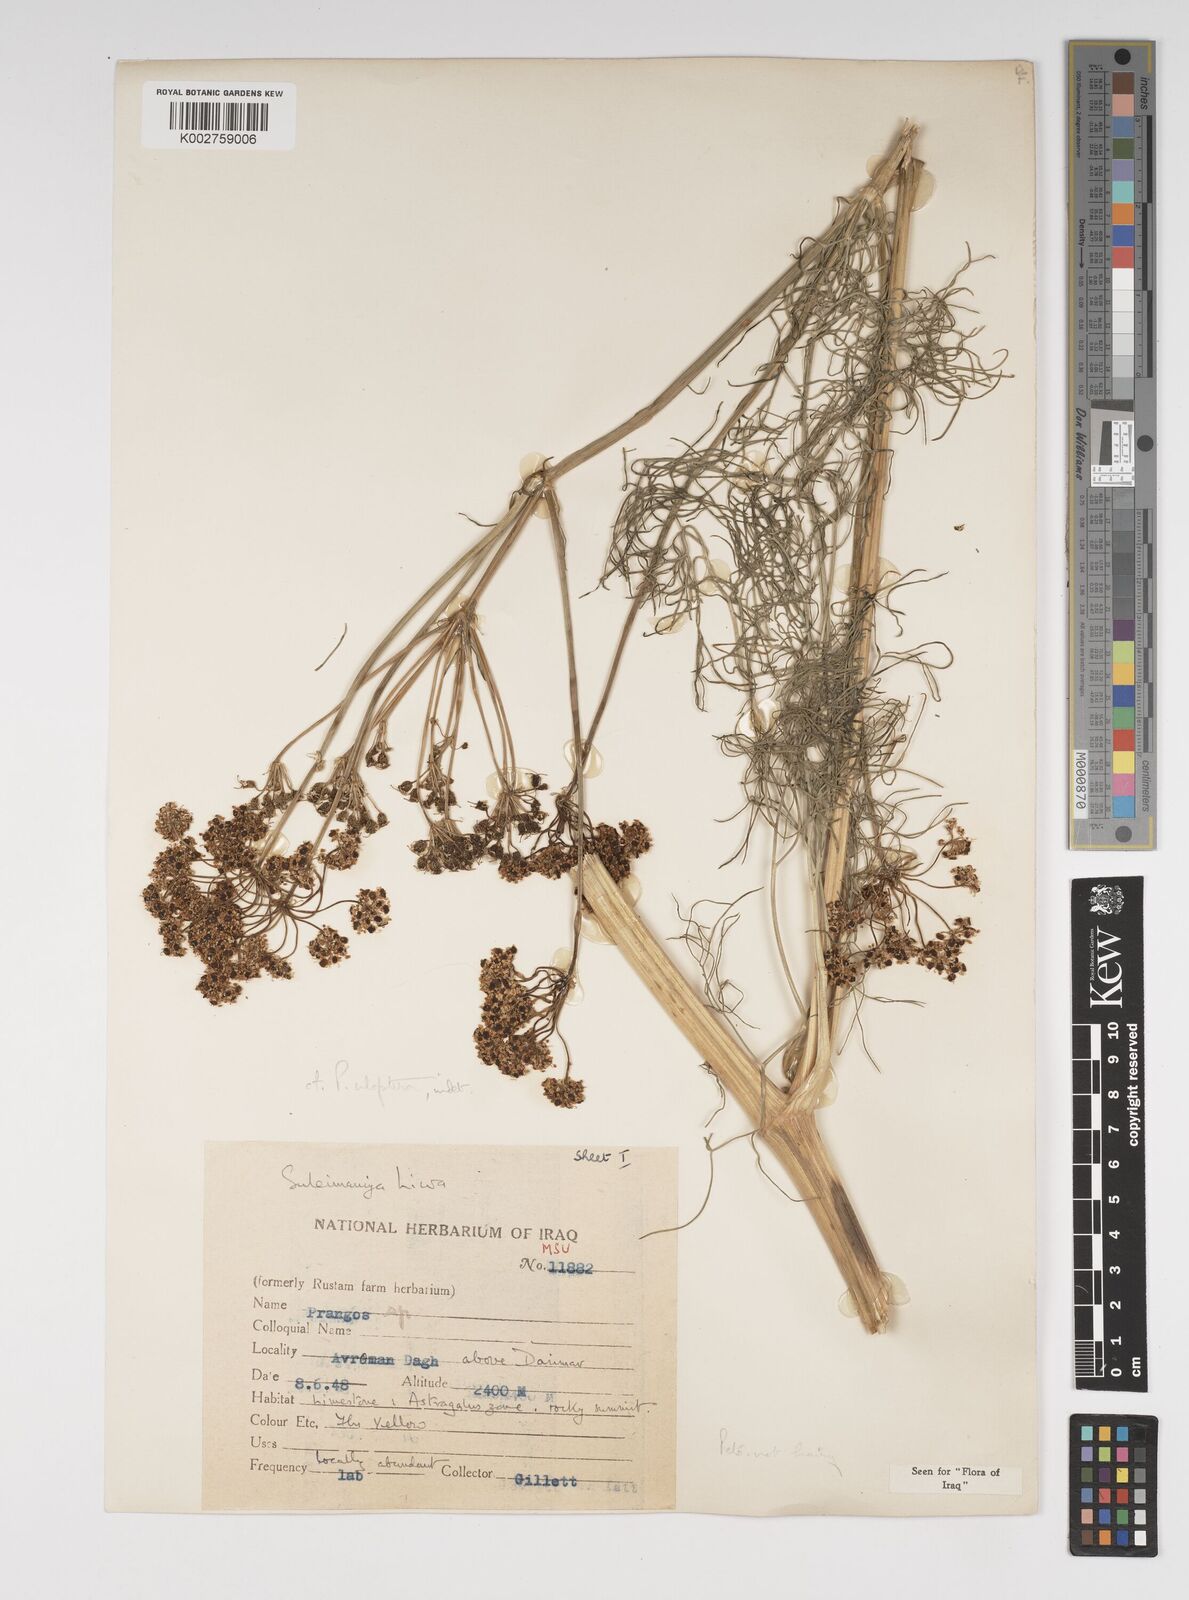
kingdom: Plantae
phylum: Tracheophyta
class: Magnoliopsida
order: Apiales
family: Apiaceae
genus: Prangos
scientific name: Prangos uloptera
